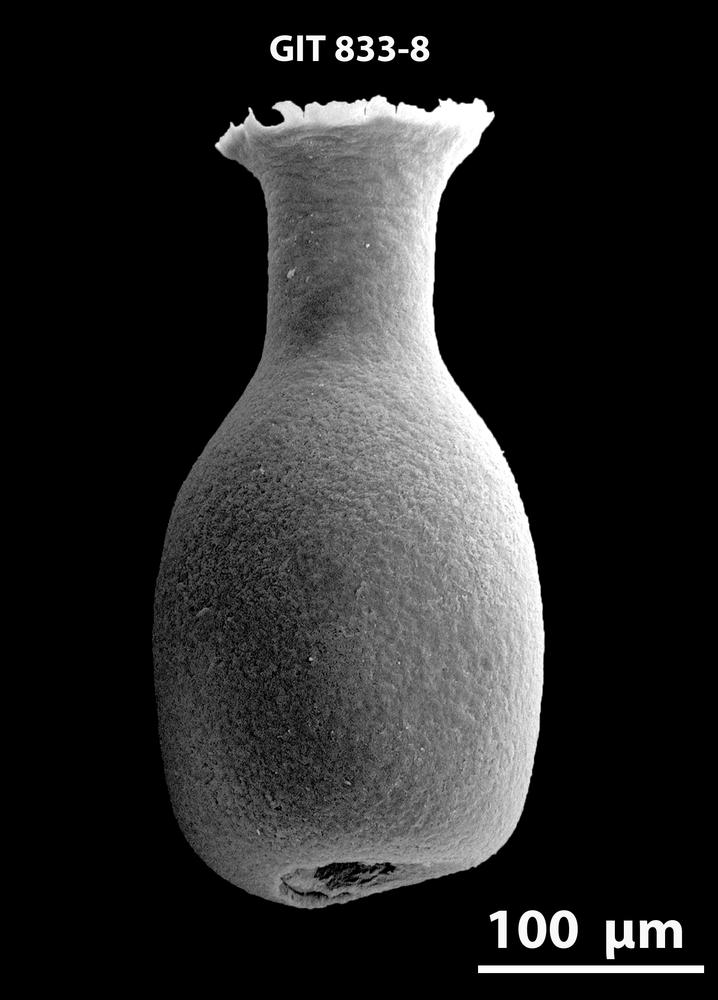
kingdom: Animalia
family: Lagenochitinidae
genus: Lagenochitina
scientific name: Lagenochitina
